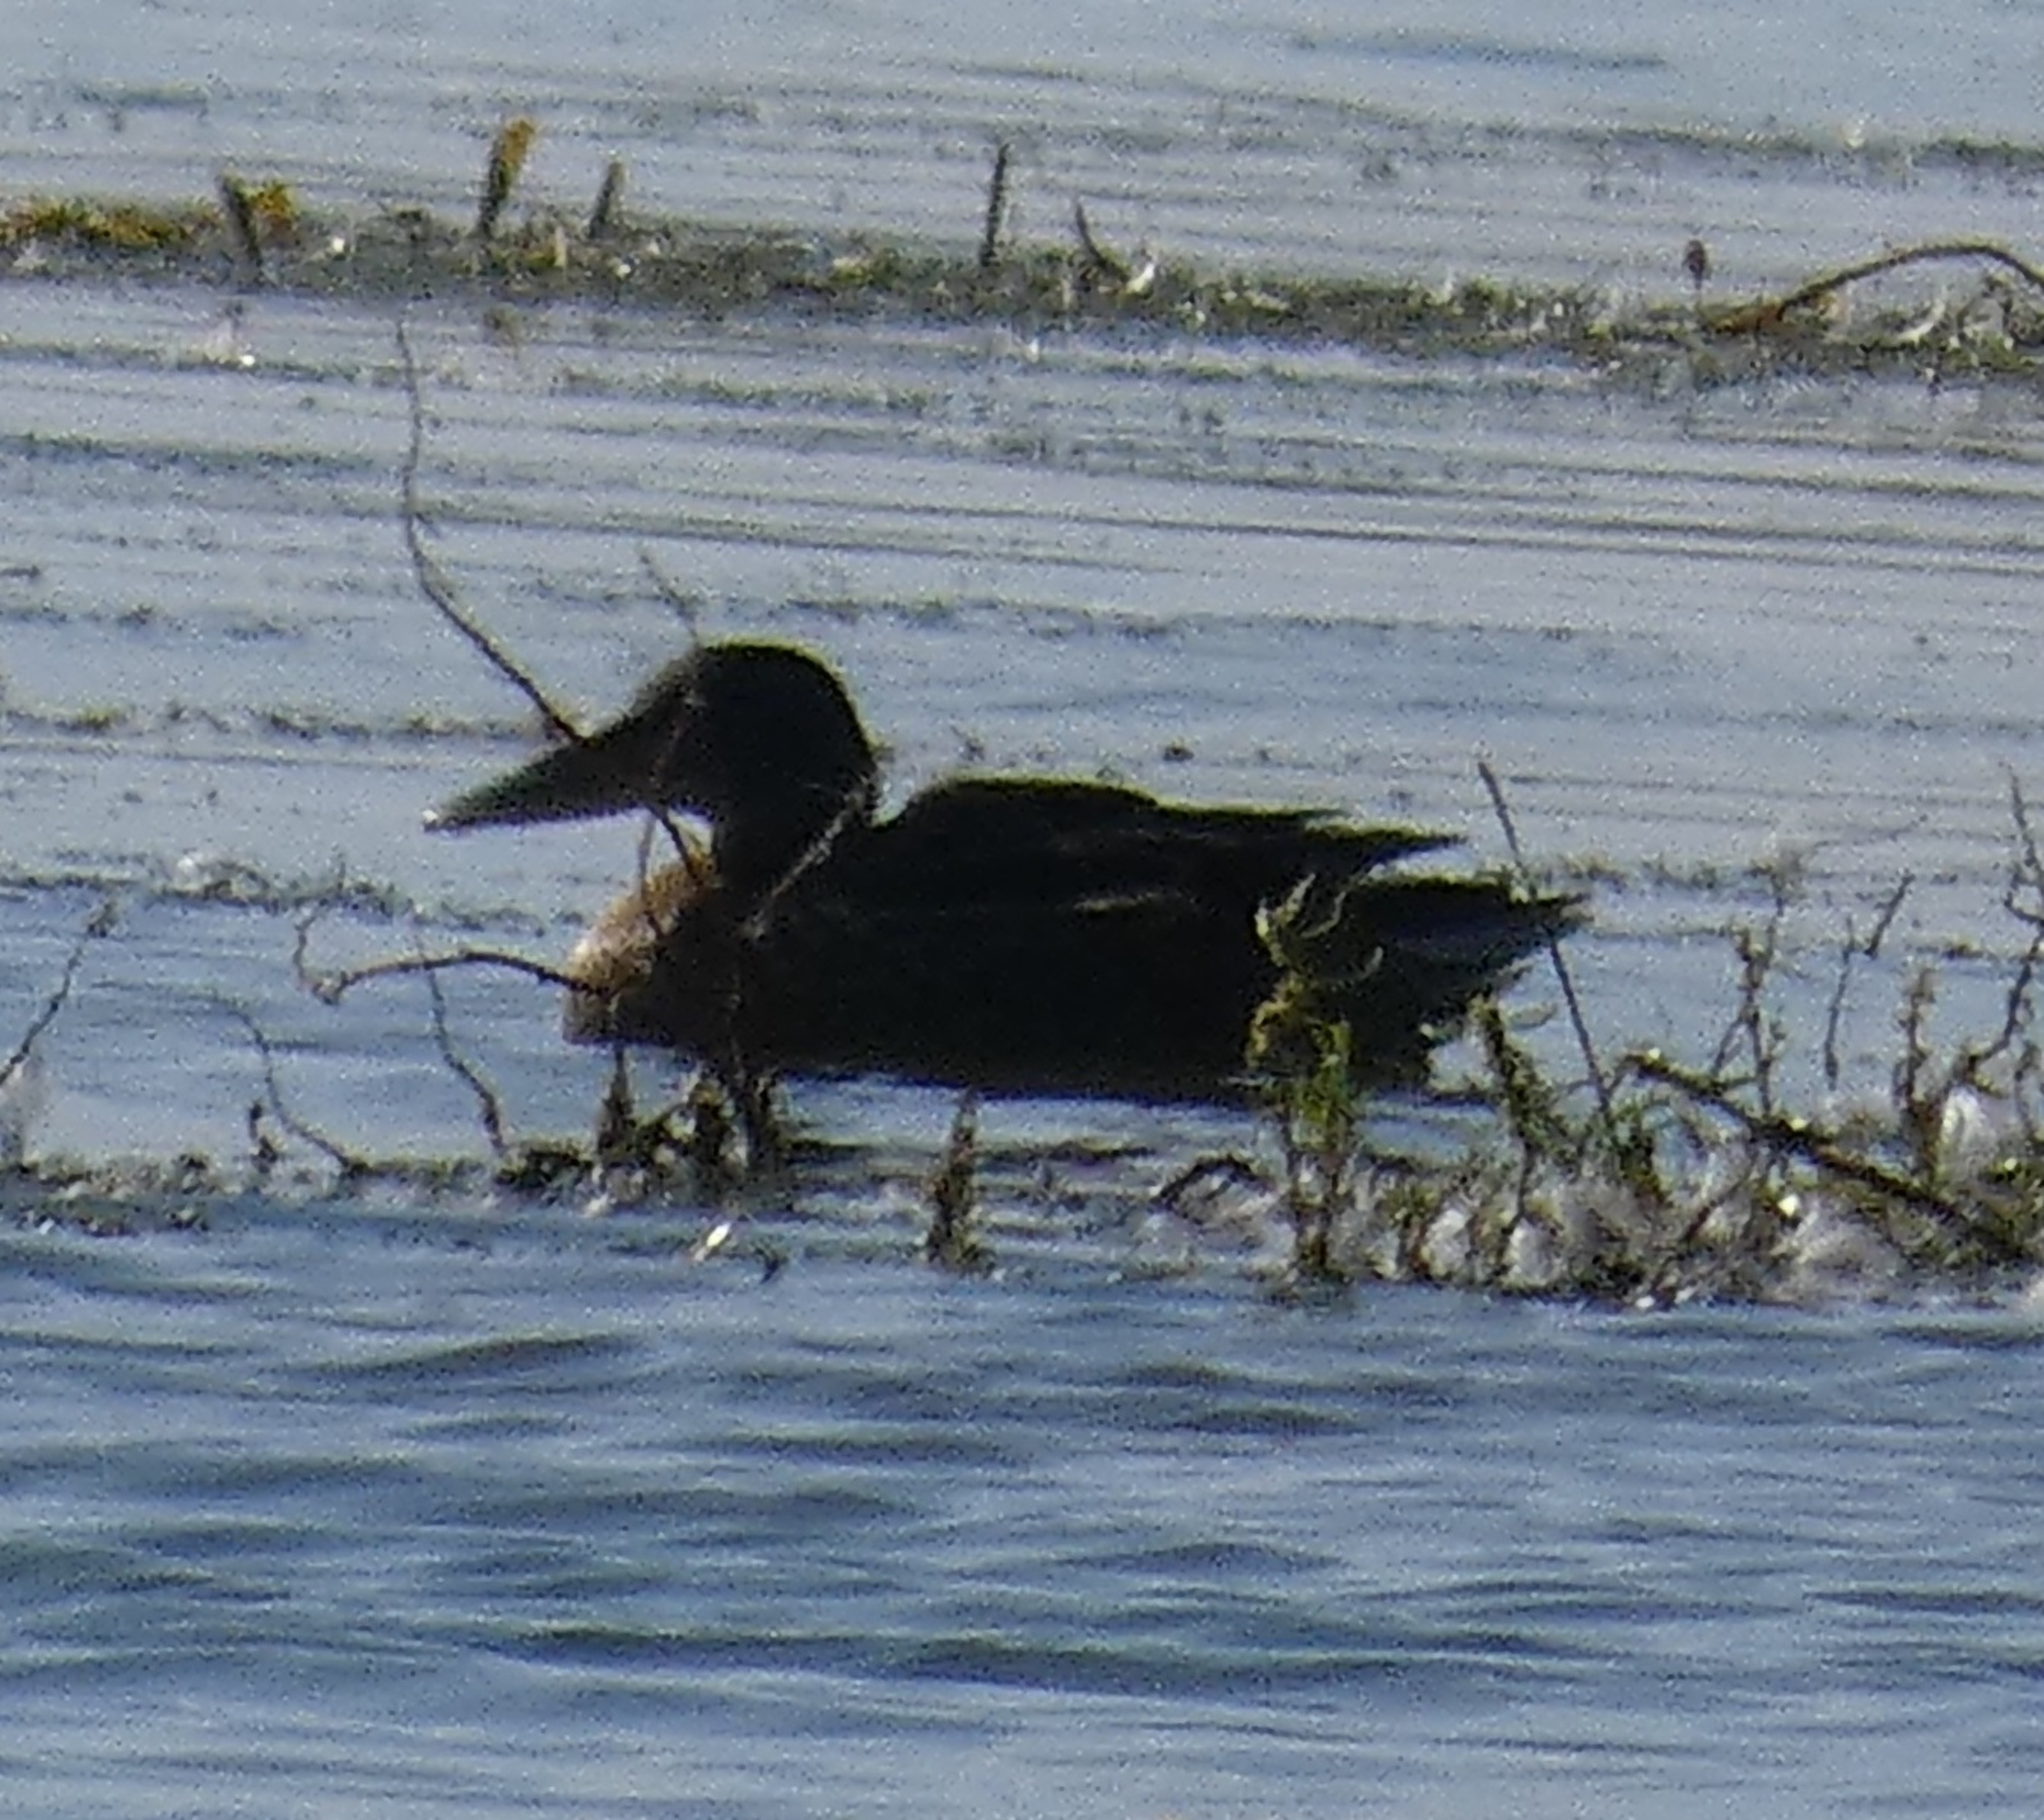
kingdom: Animalia
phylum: Chordata
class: Aves
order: Anseriformes
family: Anatidae
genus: Spatula
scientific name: Spatula clypeata
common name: Skeand
